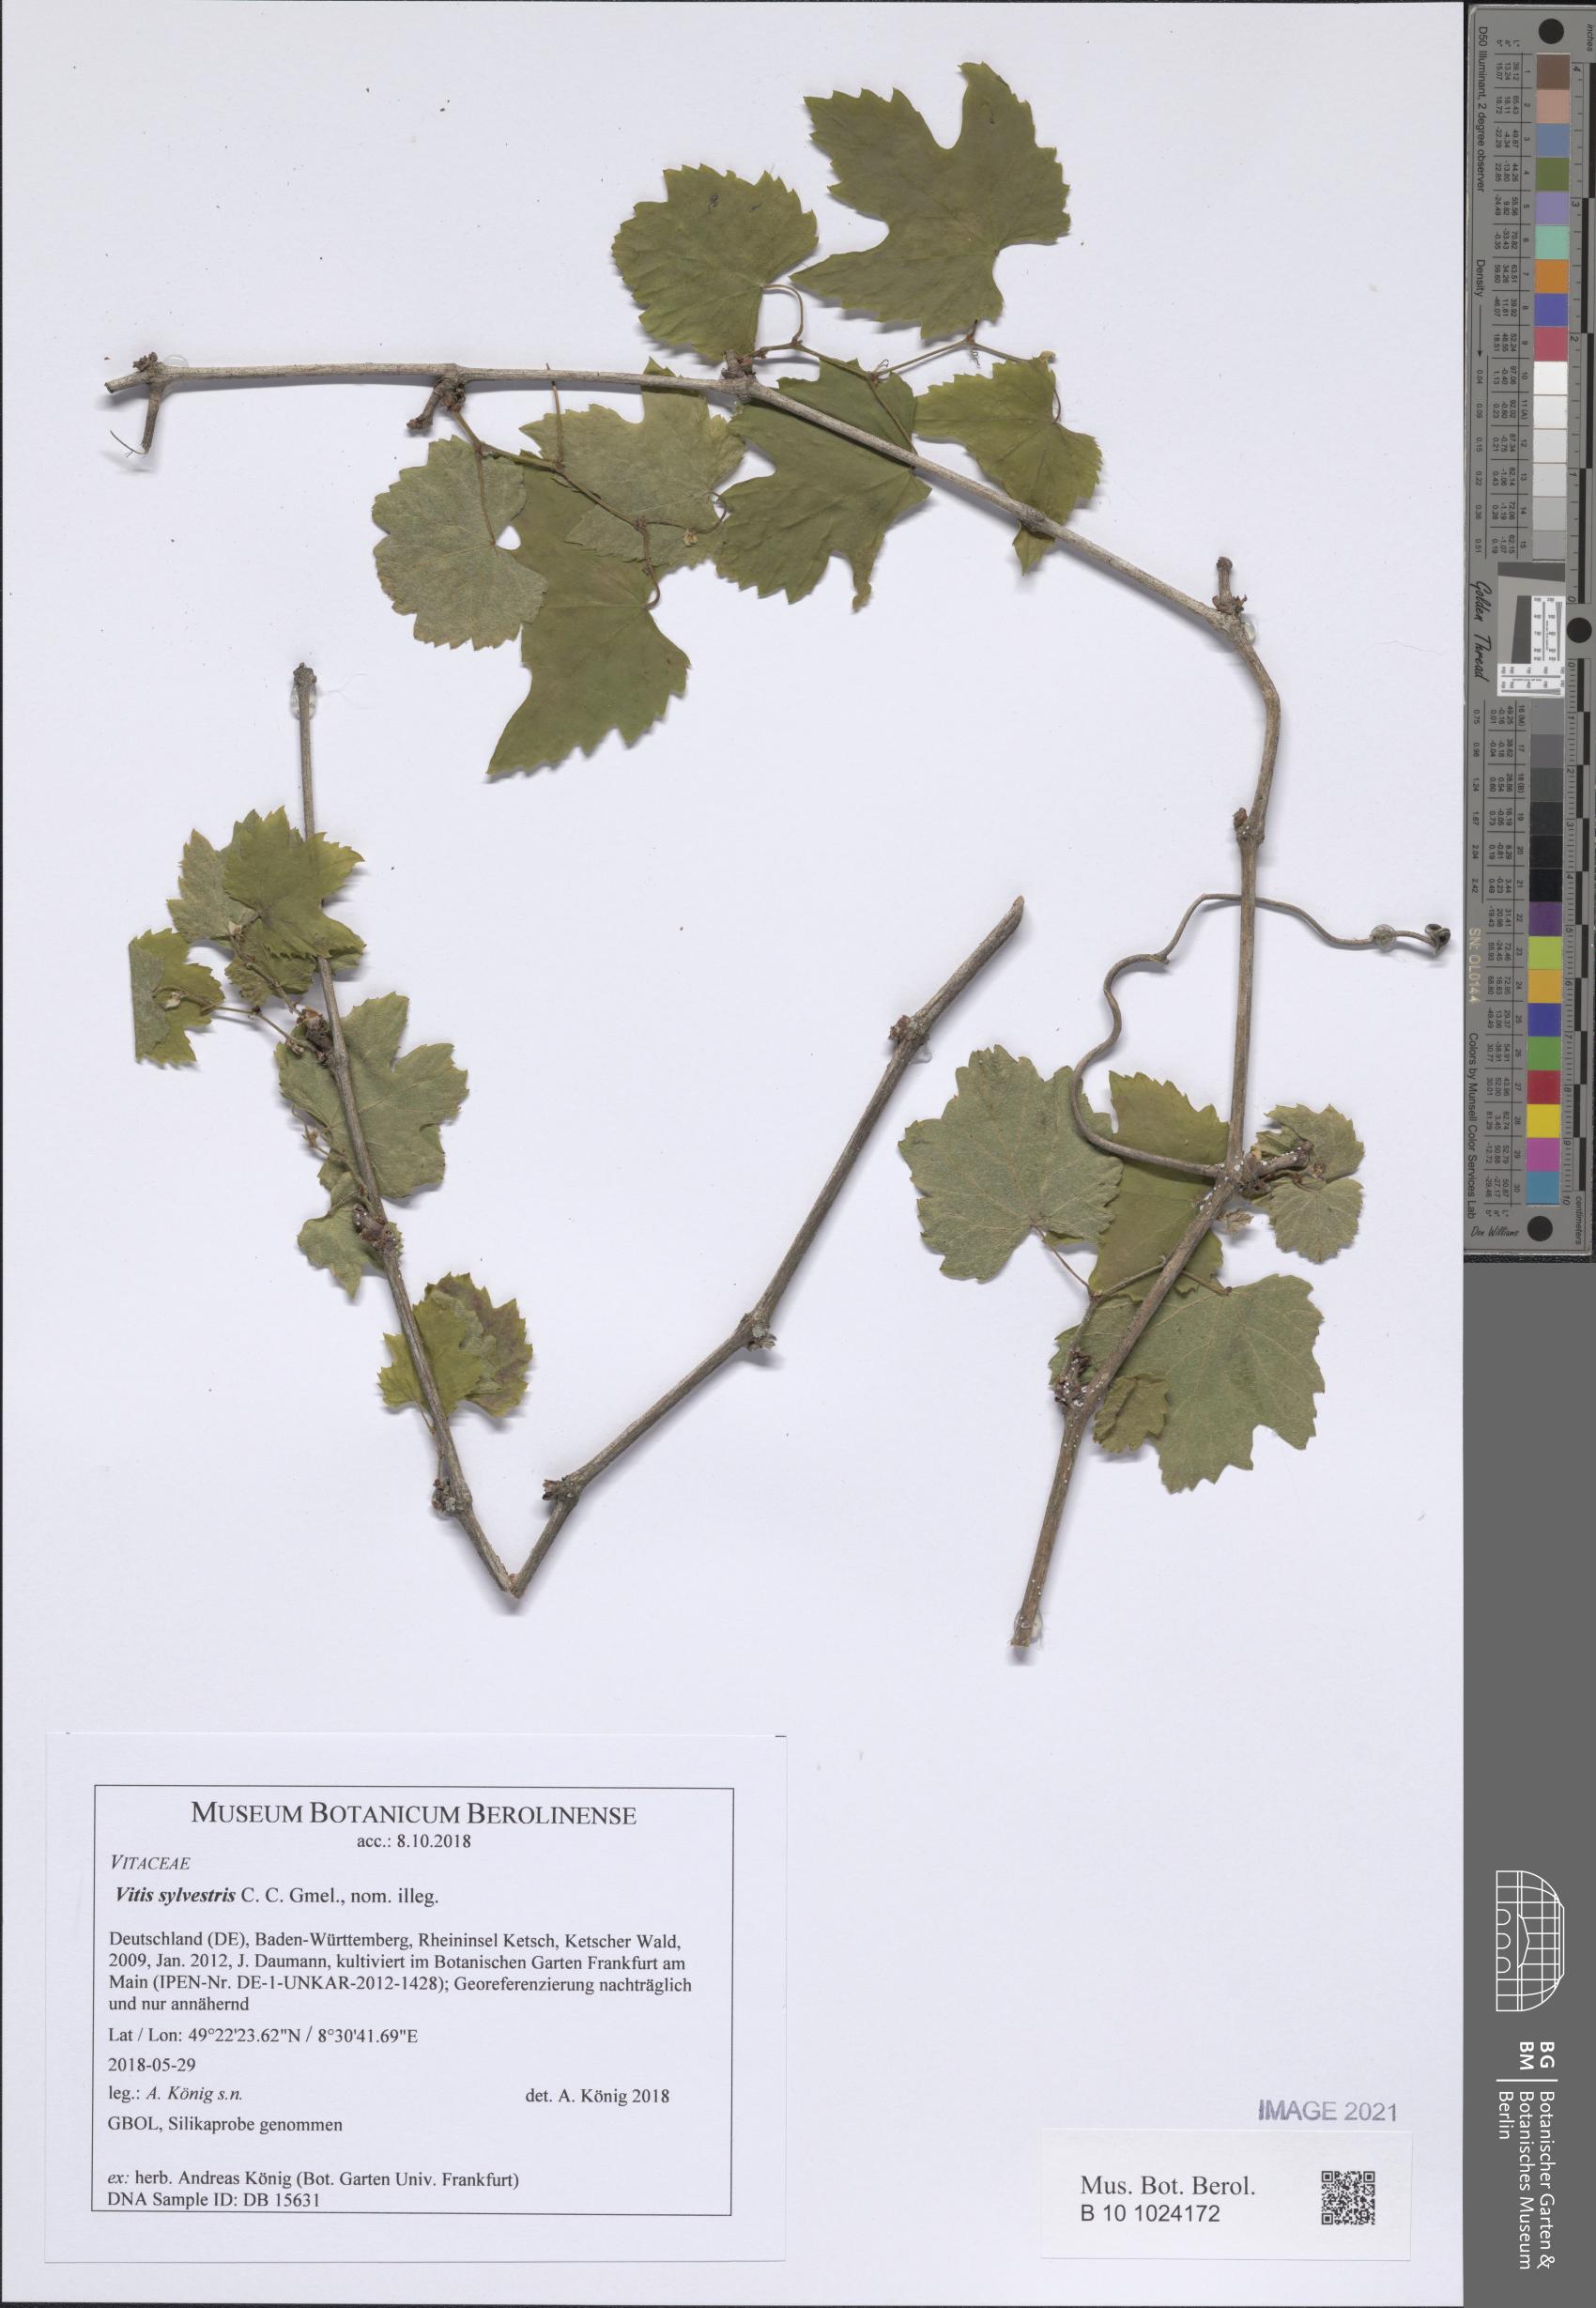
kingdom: Plantae
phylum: Tracheophyta
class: Magnoliopsida
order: Vitales
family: Vitaceae
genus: Vitis
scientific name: Vitis gmelinii
